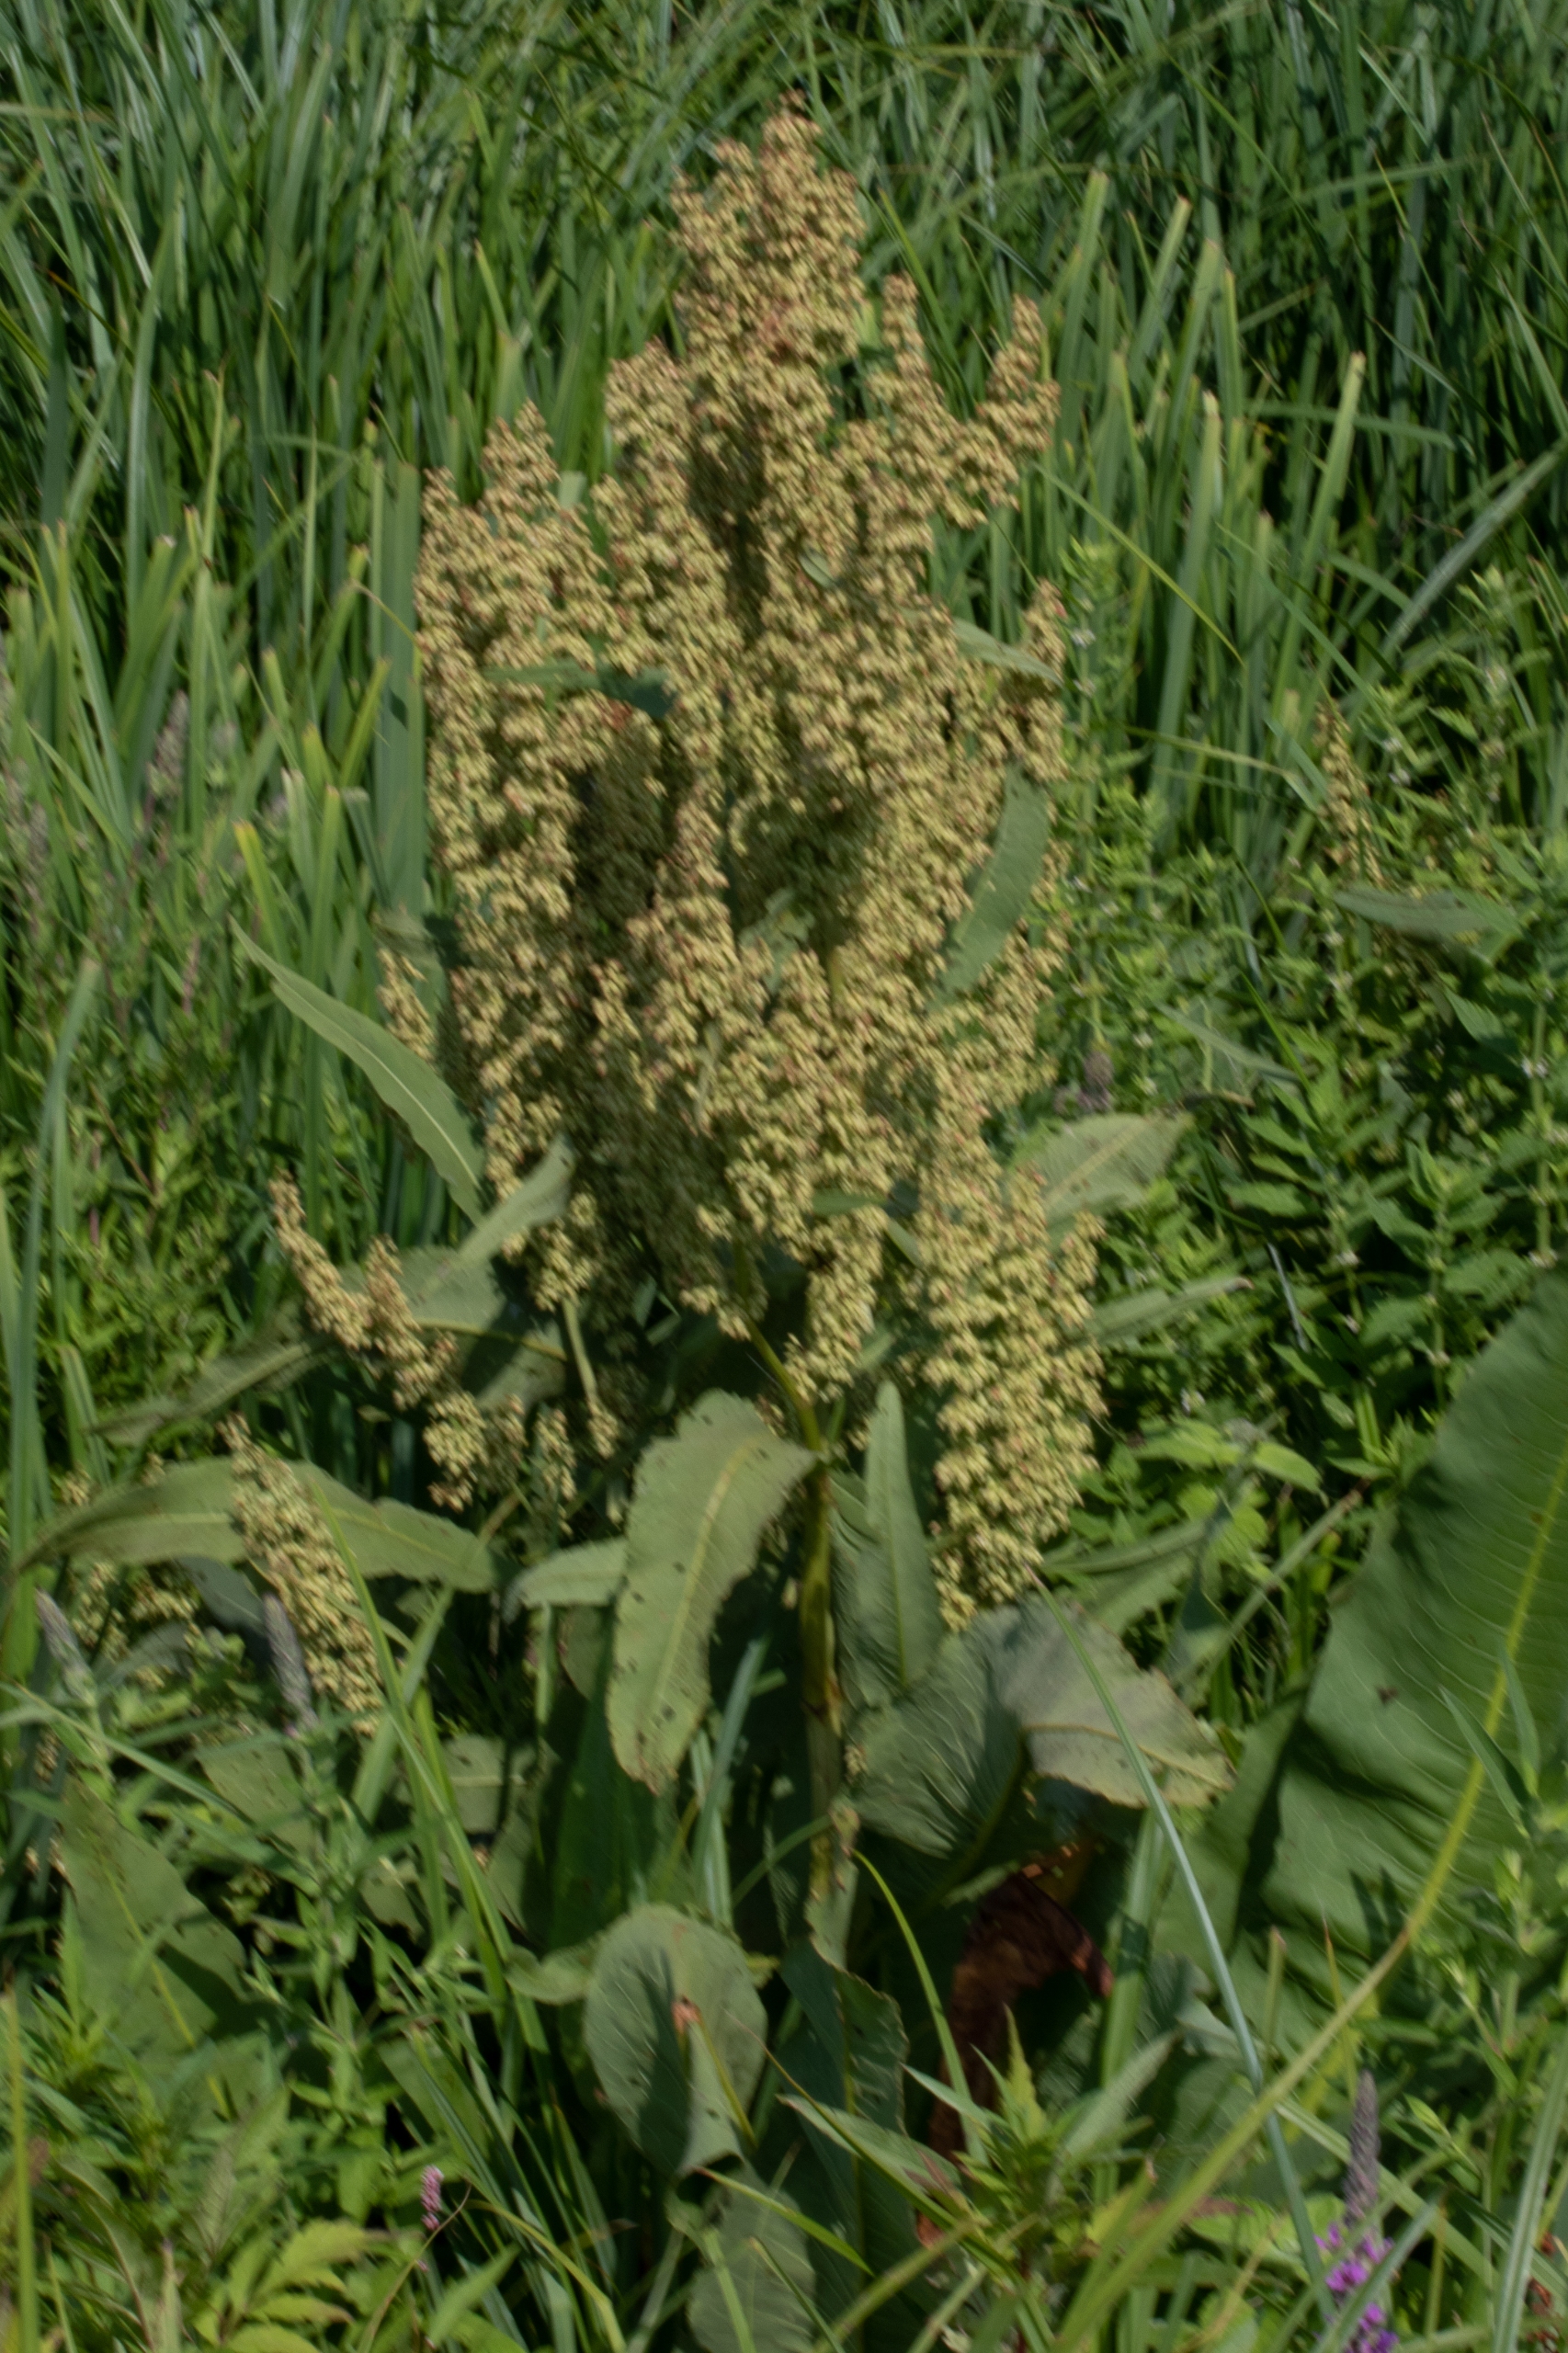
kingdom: Plantae
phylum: Tracheophyta
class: Magnoliopsida
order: Caryophyllales
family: Polygonaceae
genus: Rumex
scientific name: Rumex hydrolapathum
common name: Vand-skræppe
